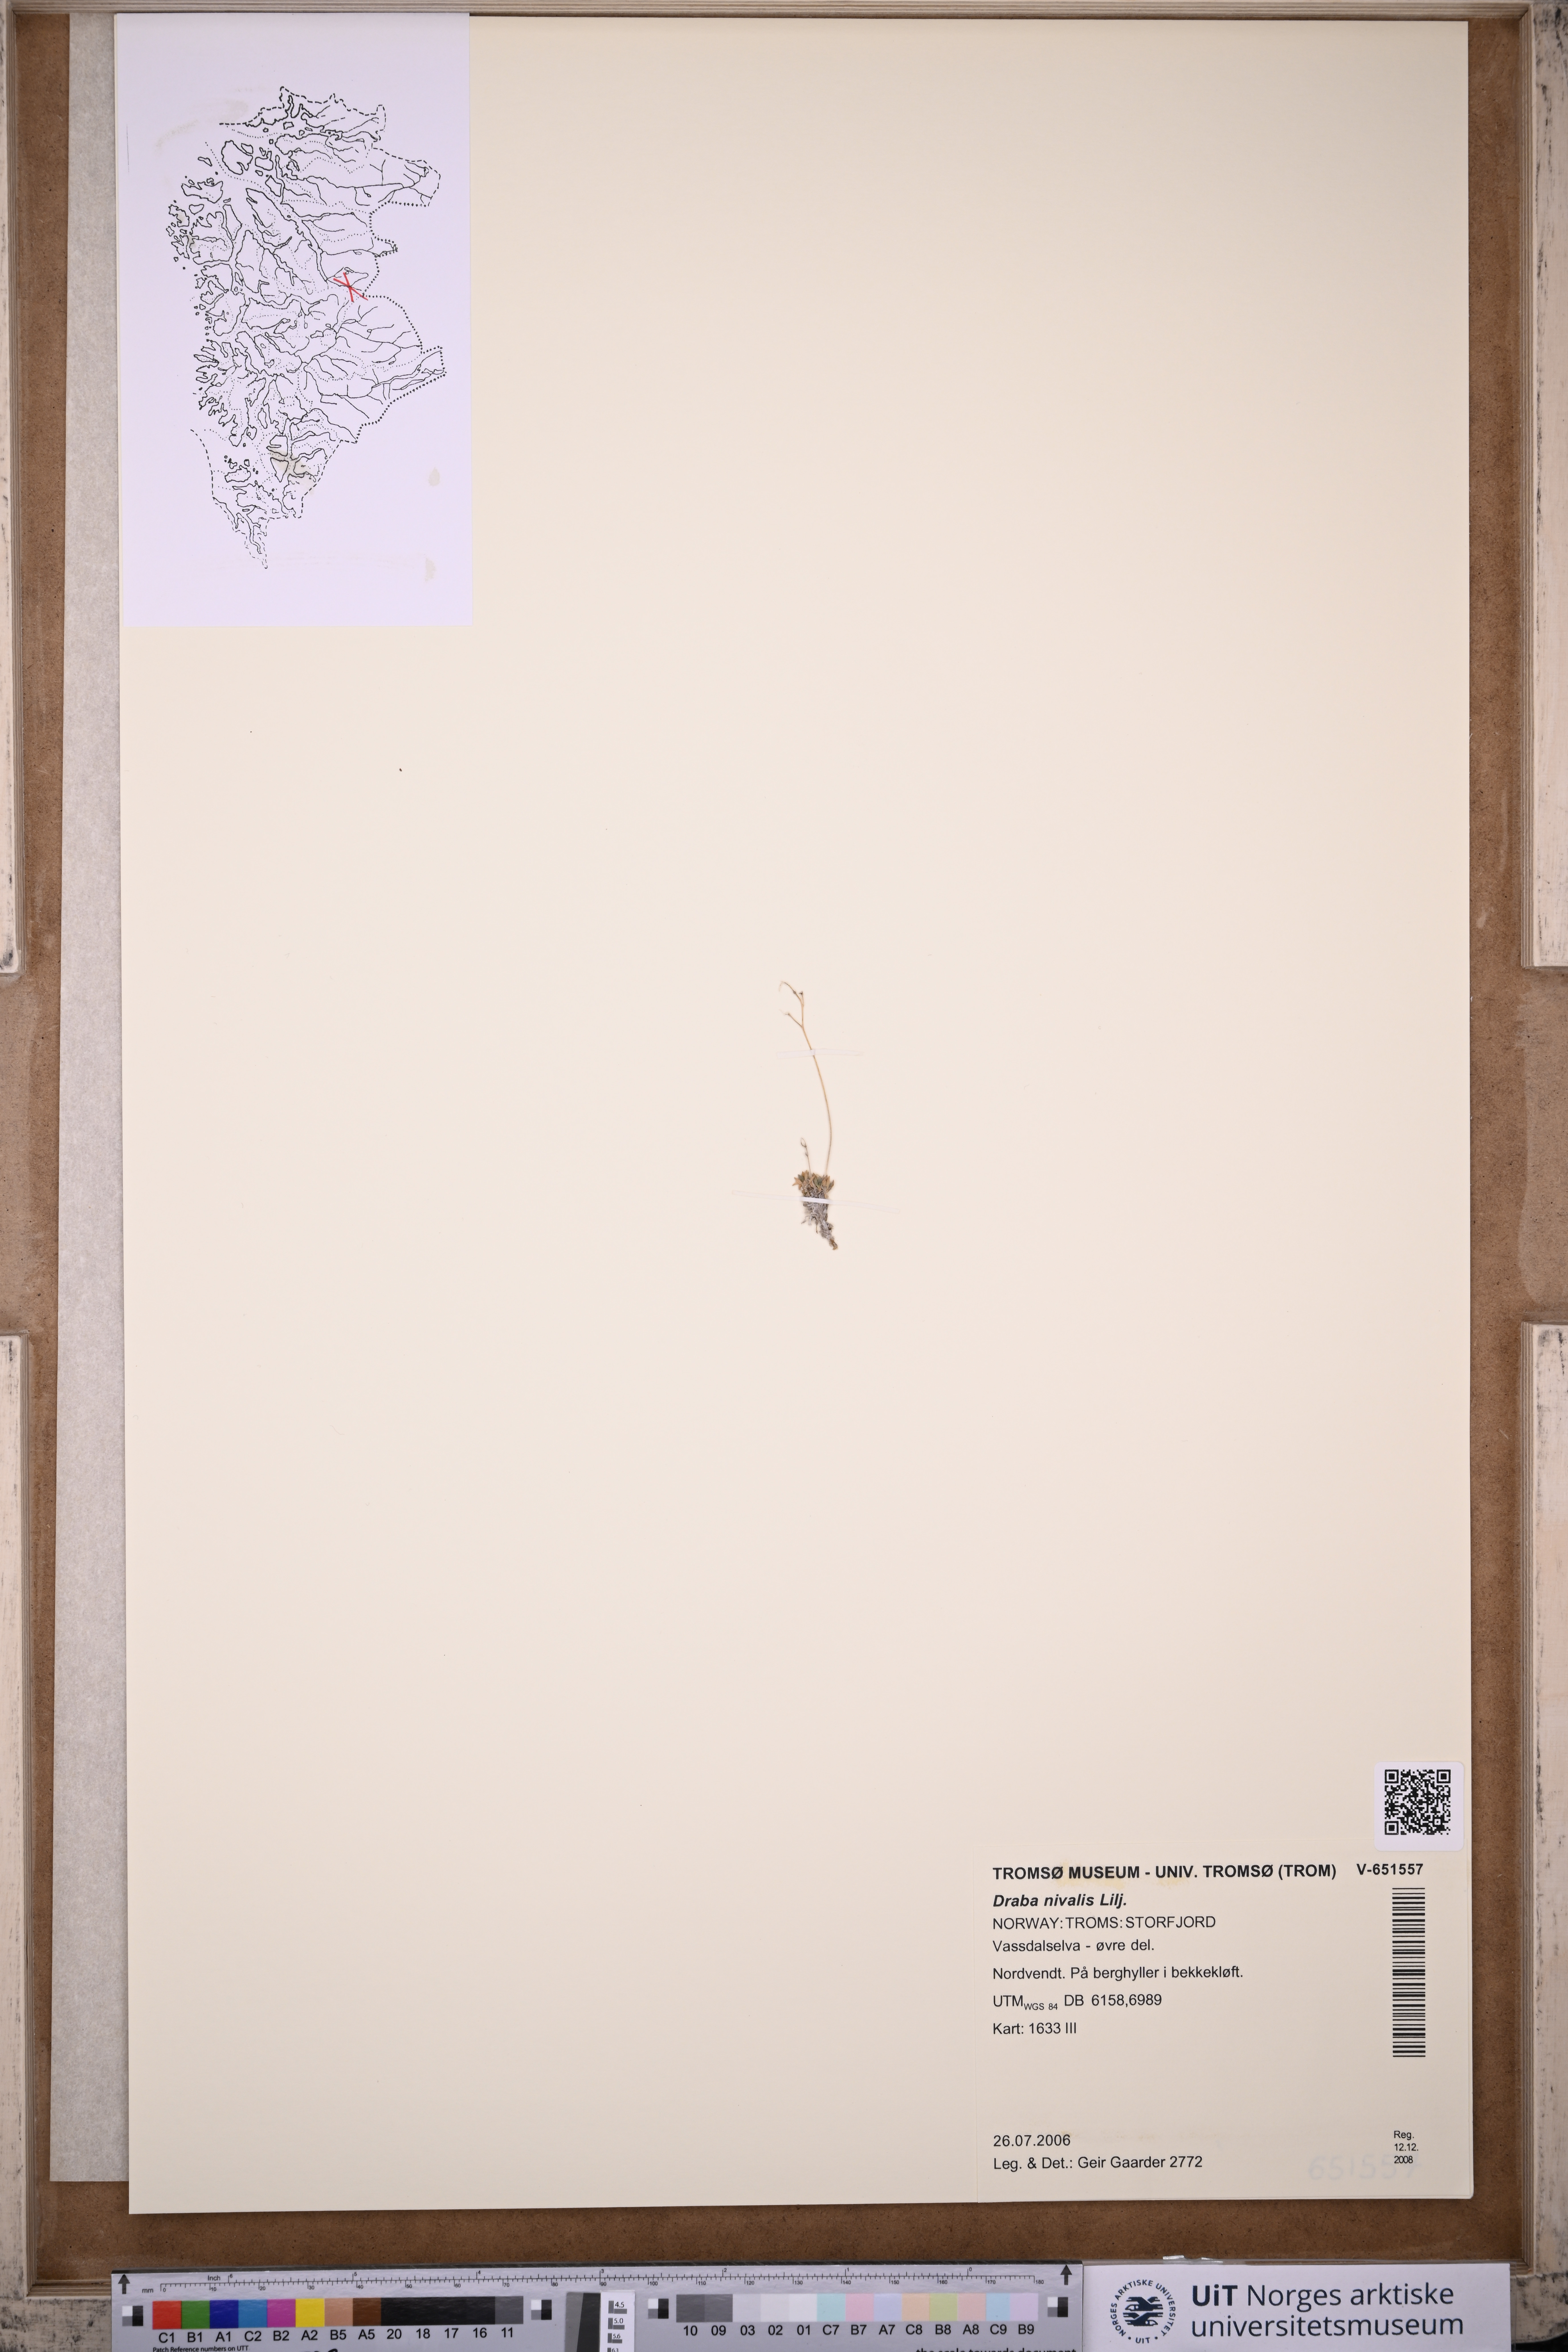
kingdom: Plantae
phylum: Tracheophyta
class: Magnoliopsida
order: Brassicales
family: Brassicaceae
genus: Draba
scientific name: Draba nivalis
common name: Snow draba
